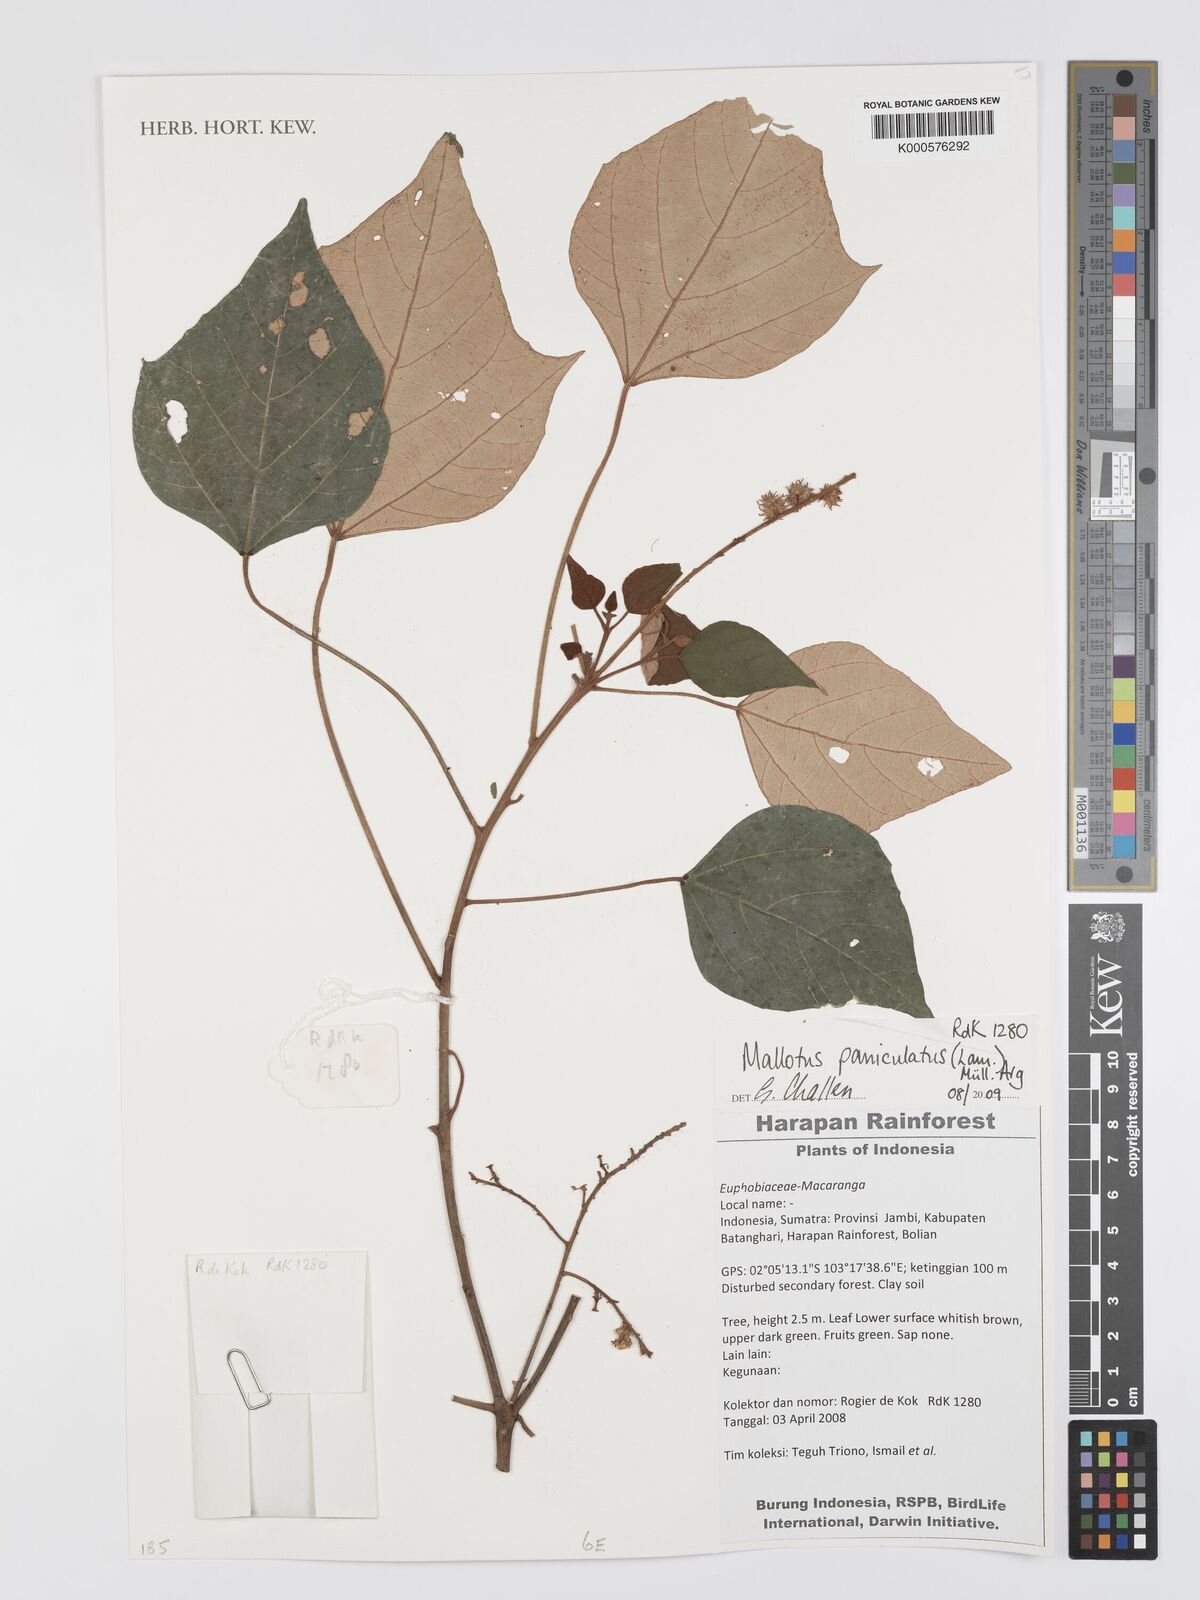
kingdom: Plantae
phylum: Tracheophyta
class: Magnoliopsida
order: Malpighiales
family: Euphorbiaceae
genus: Mallotus
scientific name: Mallotus paniculatus
